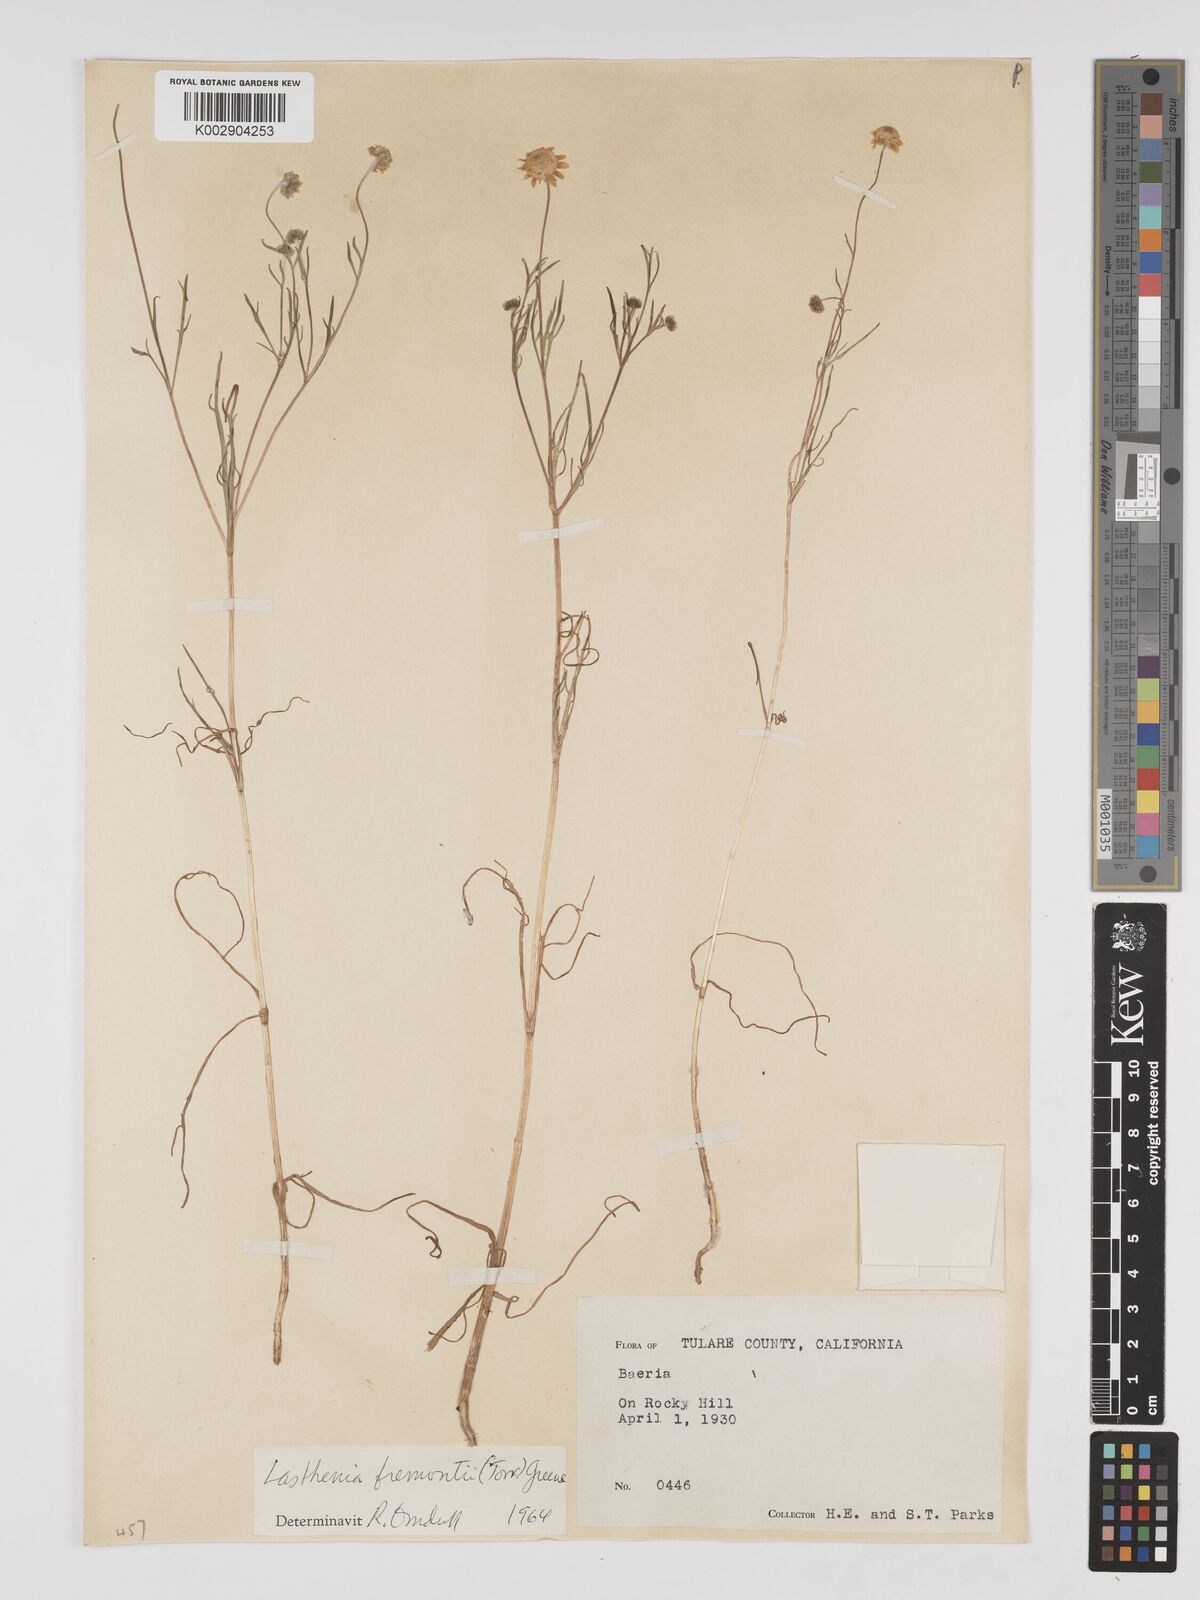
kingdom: Plantae
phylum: Tracheophyta
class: Magnoliopsida
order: Asterales
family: Asteraceae
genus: Lasthenia
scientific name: Lasthenia fremontii
